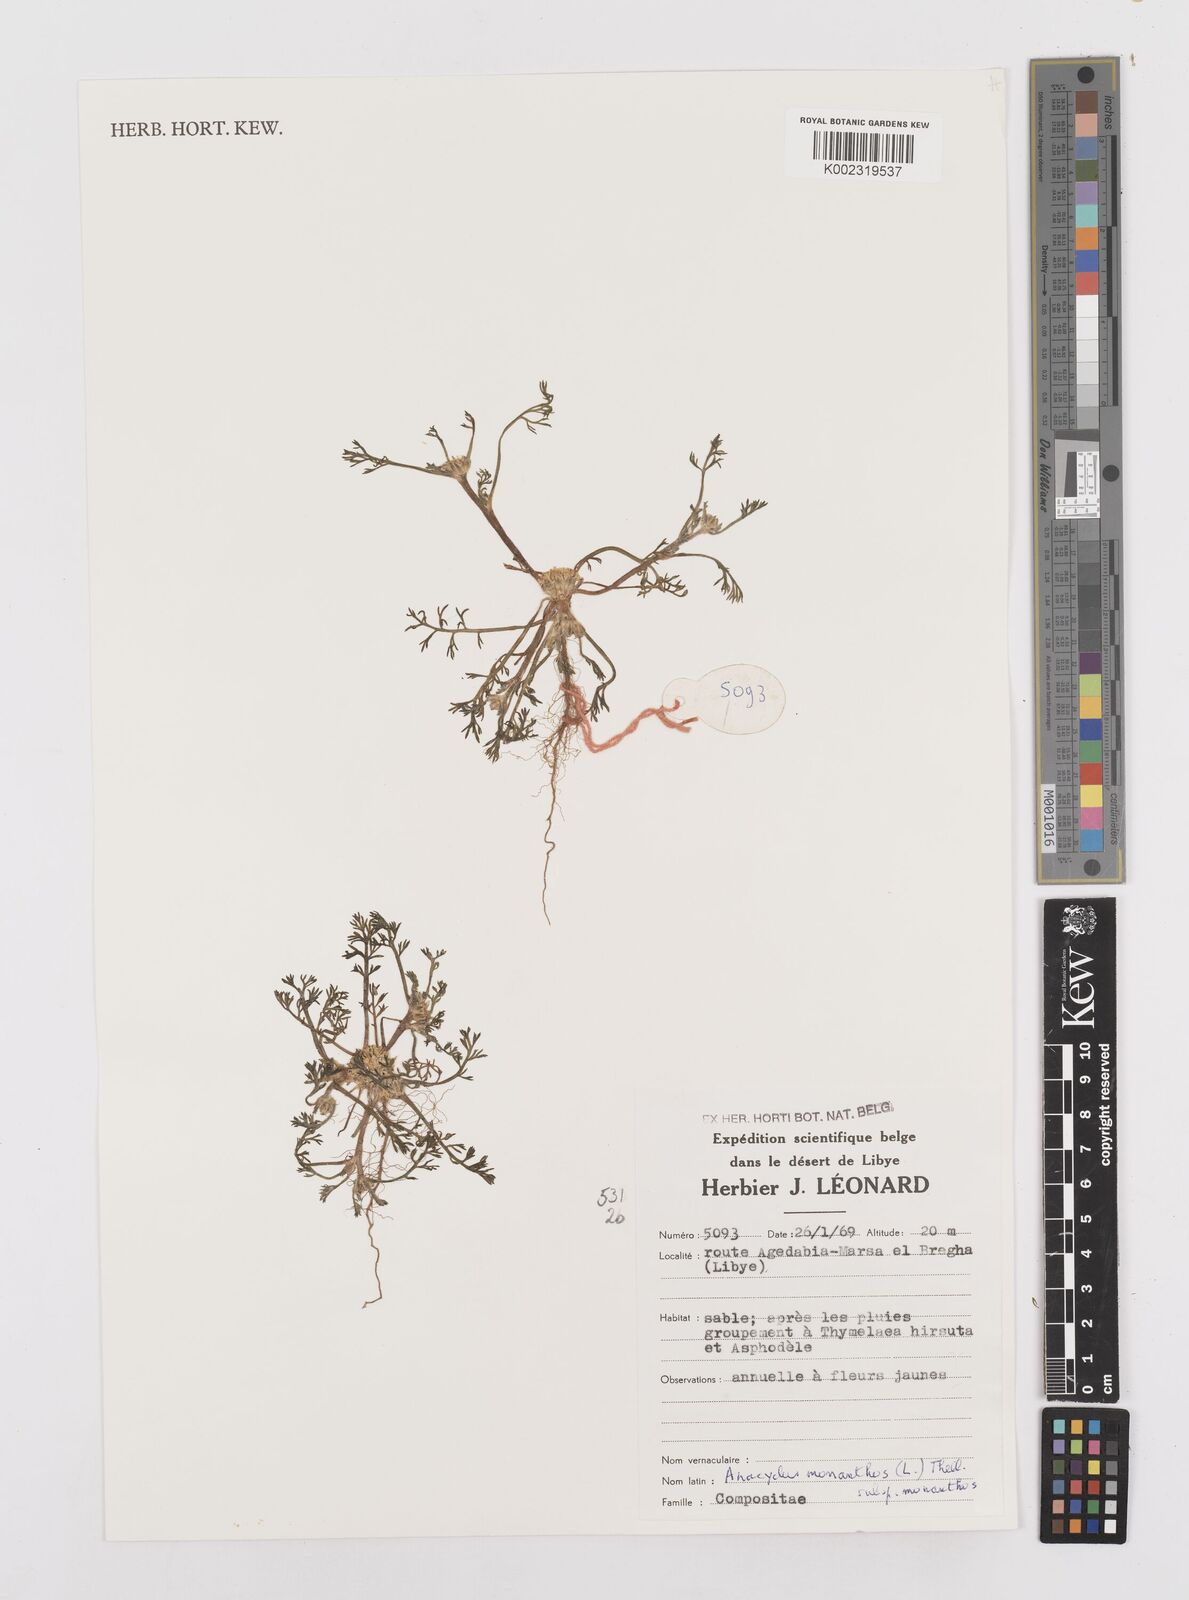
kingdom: Plantae
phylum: Tracheophyta
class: Magnoliopsida
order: Asterales
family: Asteraceae
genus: Anacyclus
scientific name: Anacyclus monanthos
